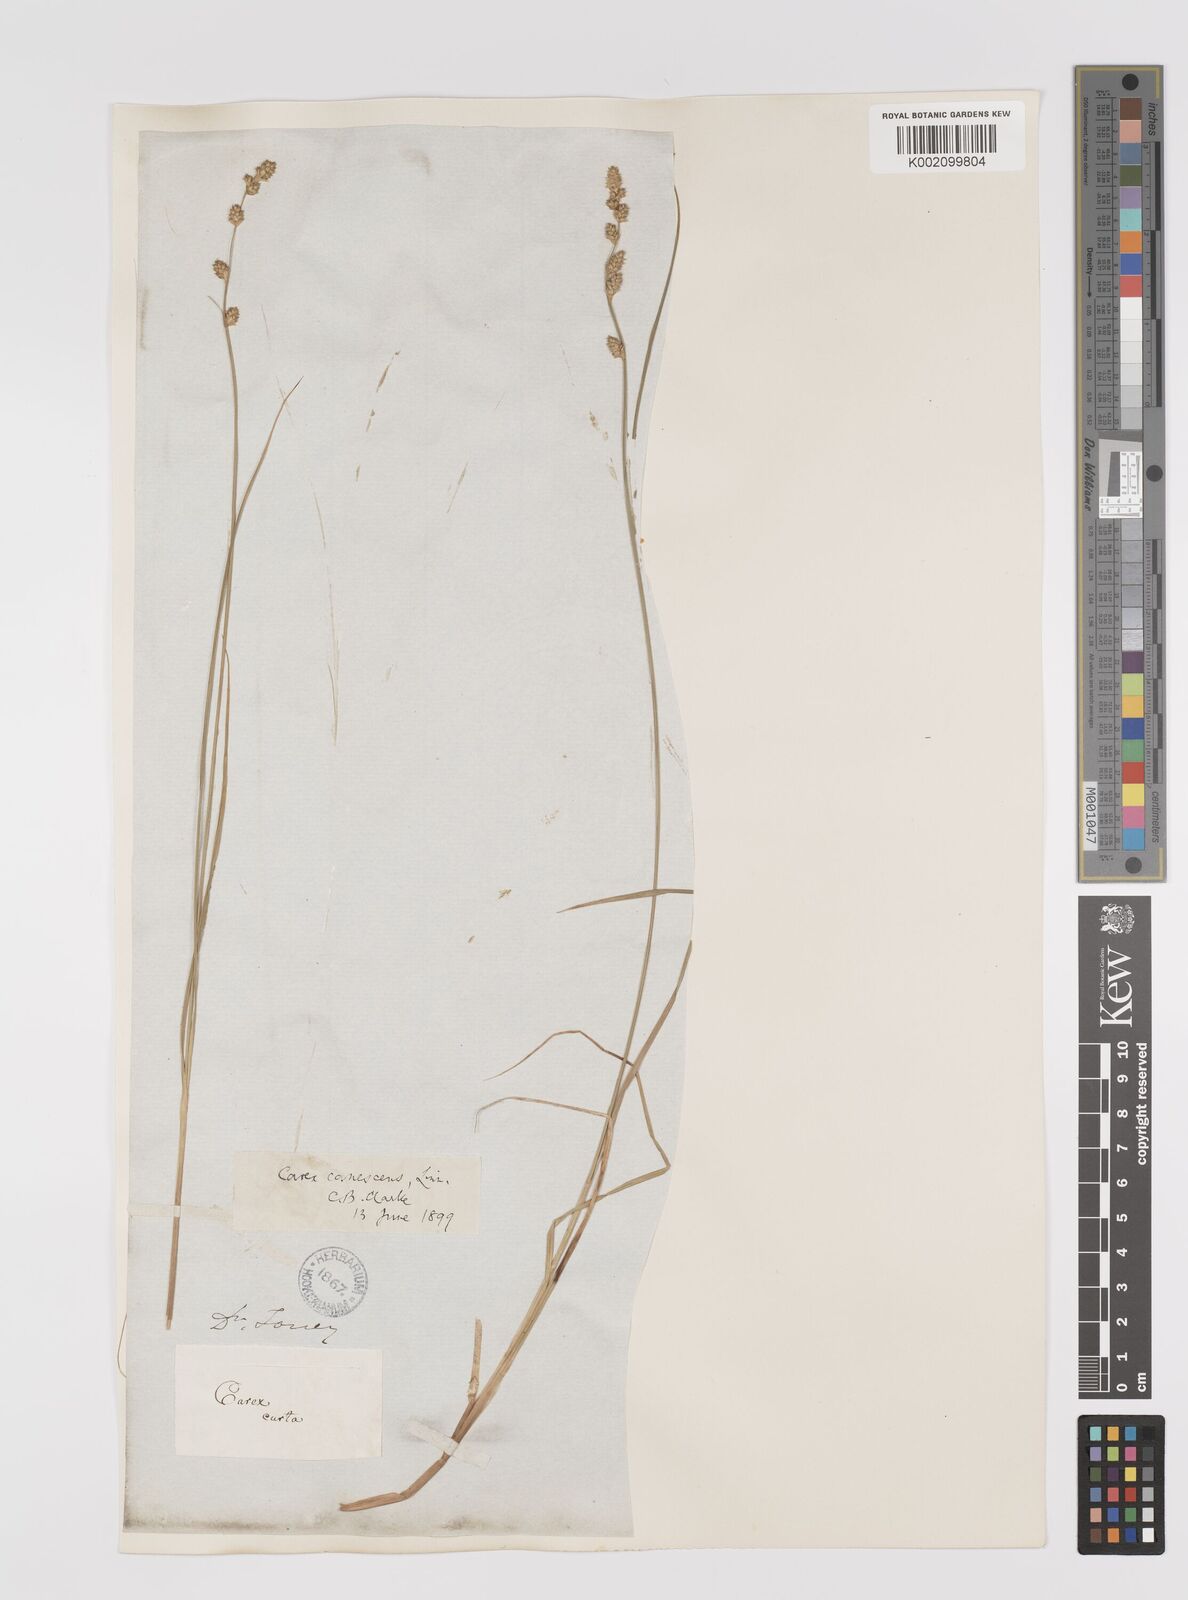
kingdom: Plantae
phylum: Tracheophyta
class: Liliopsida
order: Poales
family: Cyperaceae
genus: Carex
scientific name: Carex curta
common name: White sedge
